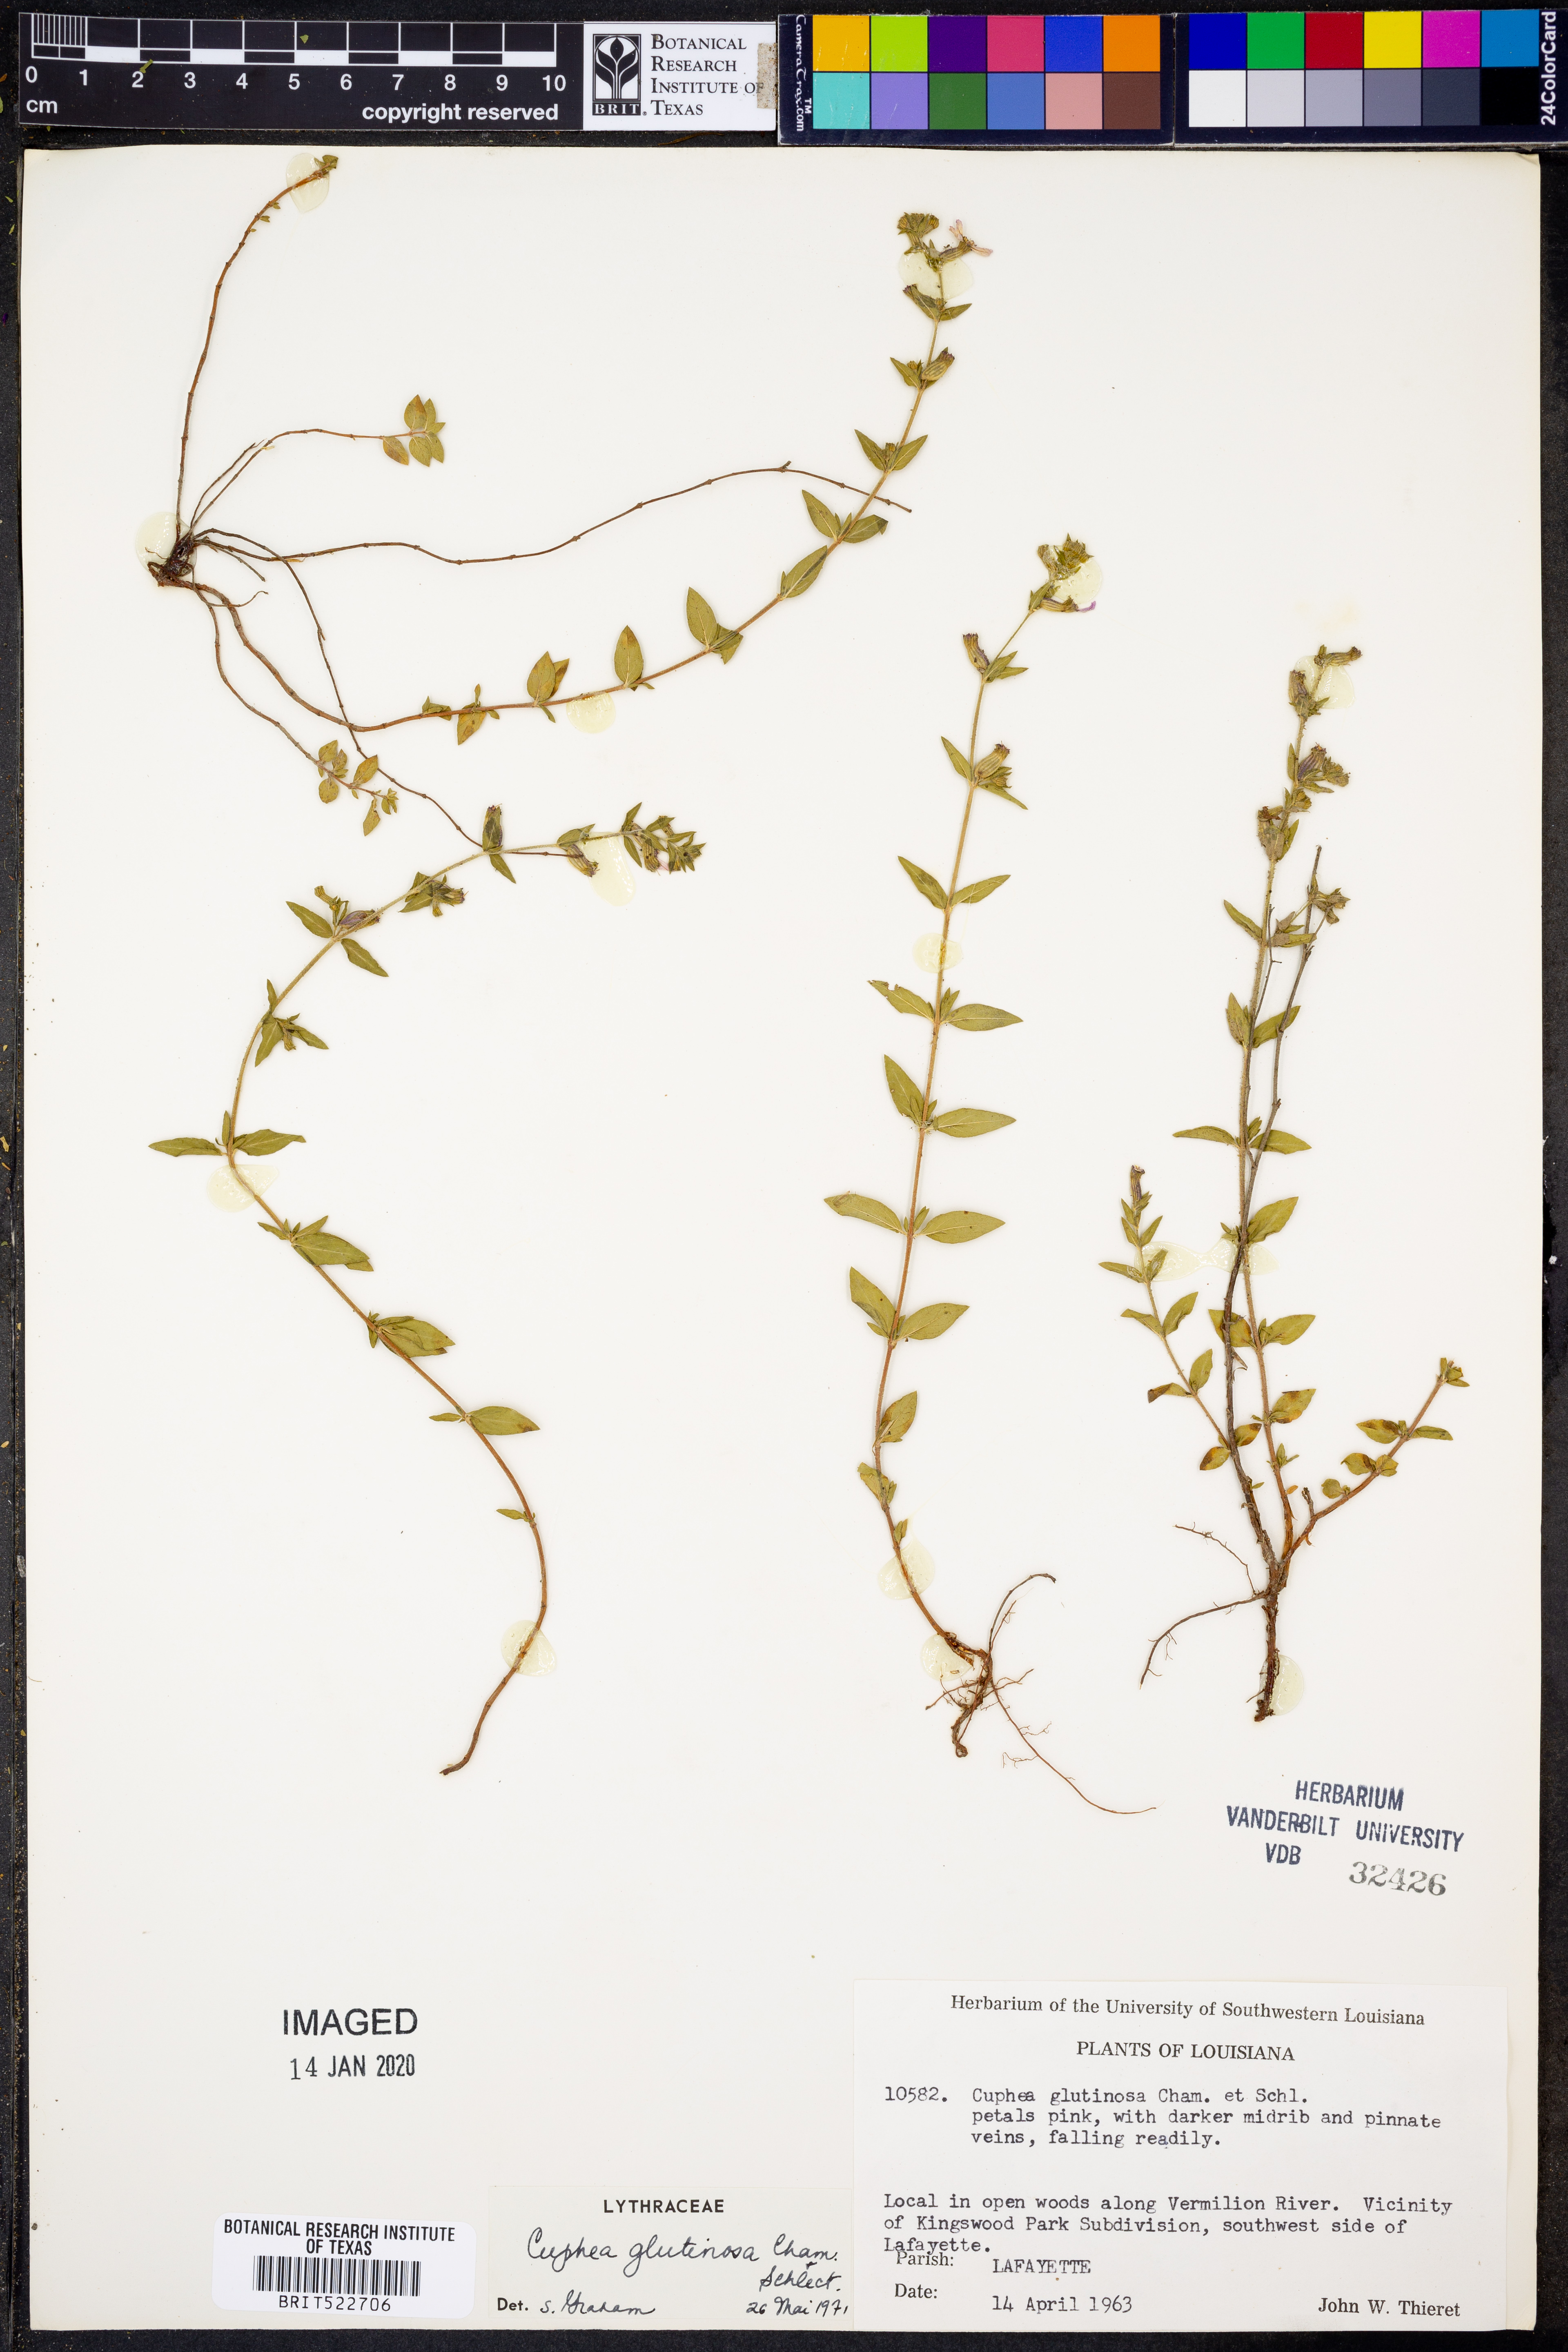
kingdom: Plantae
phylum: Tracheophyta
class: Magnoliopsida
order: Myrtales
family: Lythraceae
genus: Cuphea
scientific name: Cuphea glutinosa
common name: Sticky waxweed
